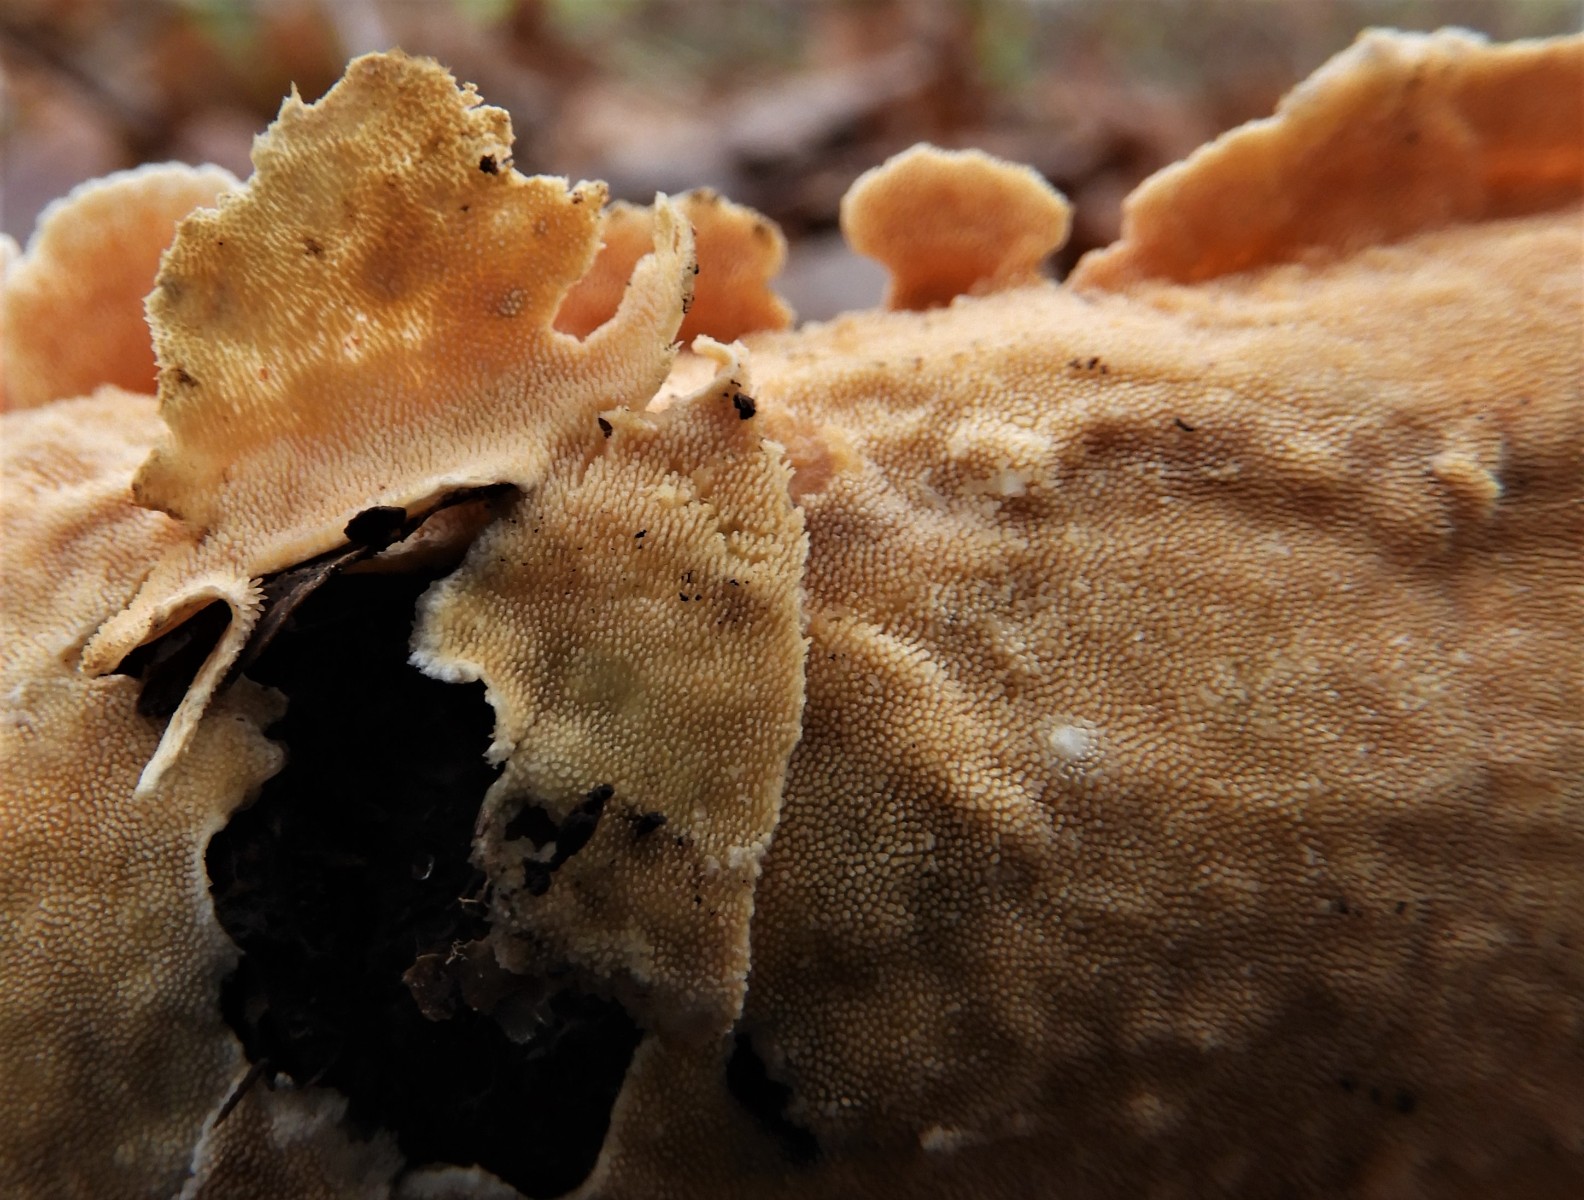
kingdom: Fungi
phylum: Basidiomycota
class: Agaricomycetes
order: Polyporales
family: Steccherinaceae
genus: Steccherinum
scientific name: Steccherinum ochraceum
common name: almindelig skønpig
